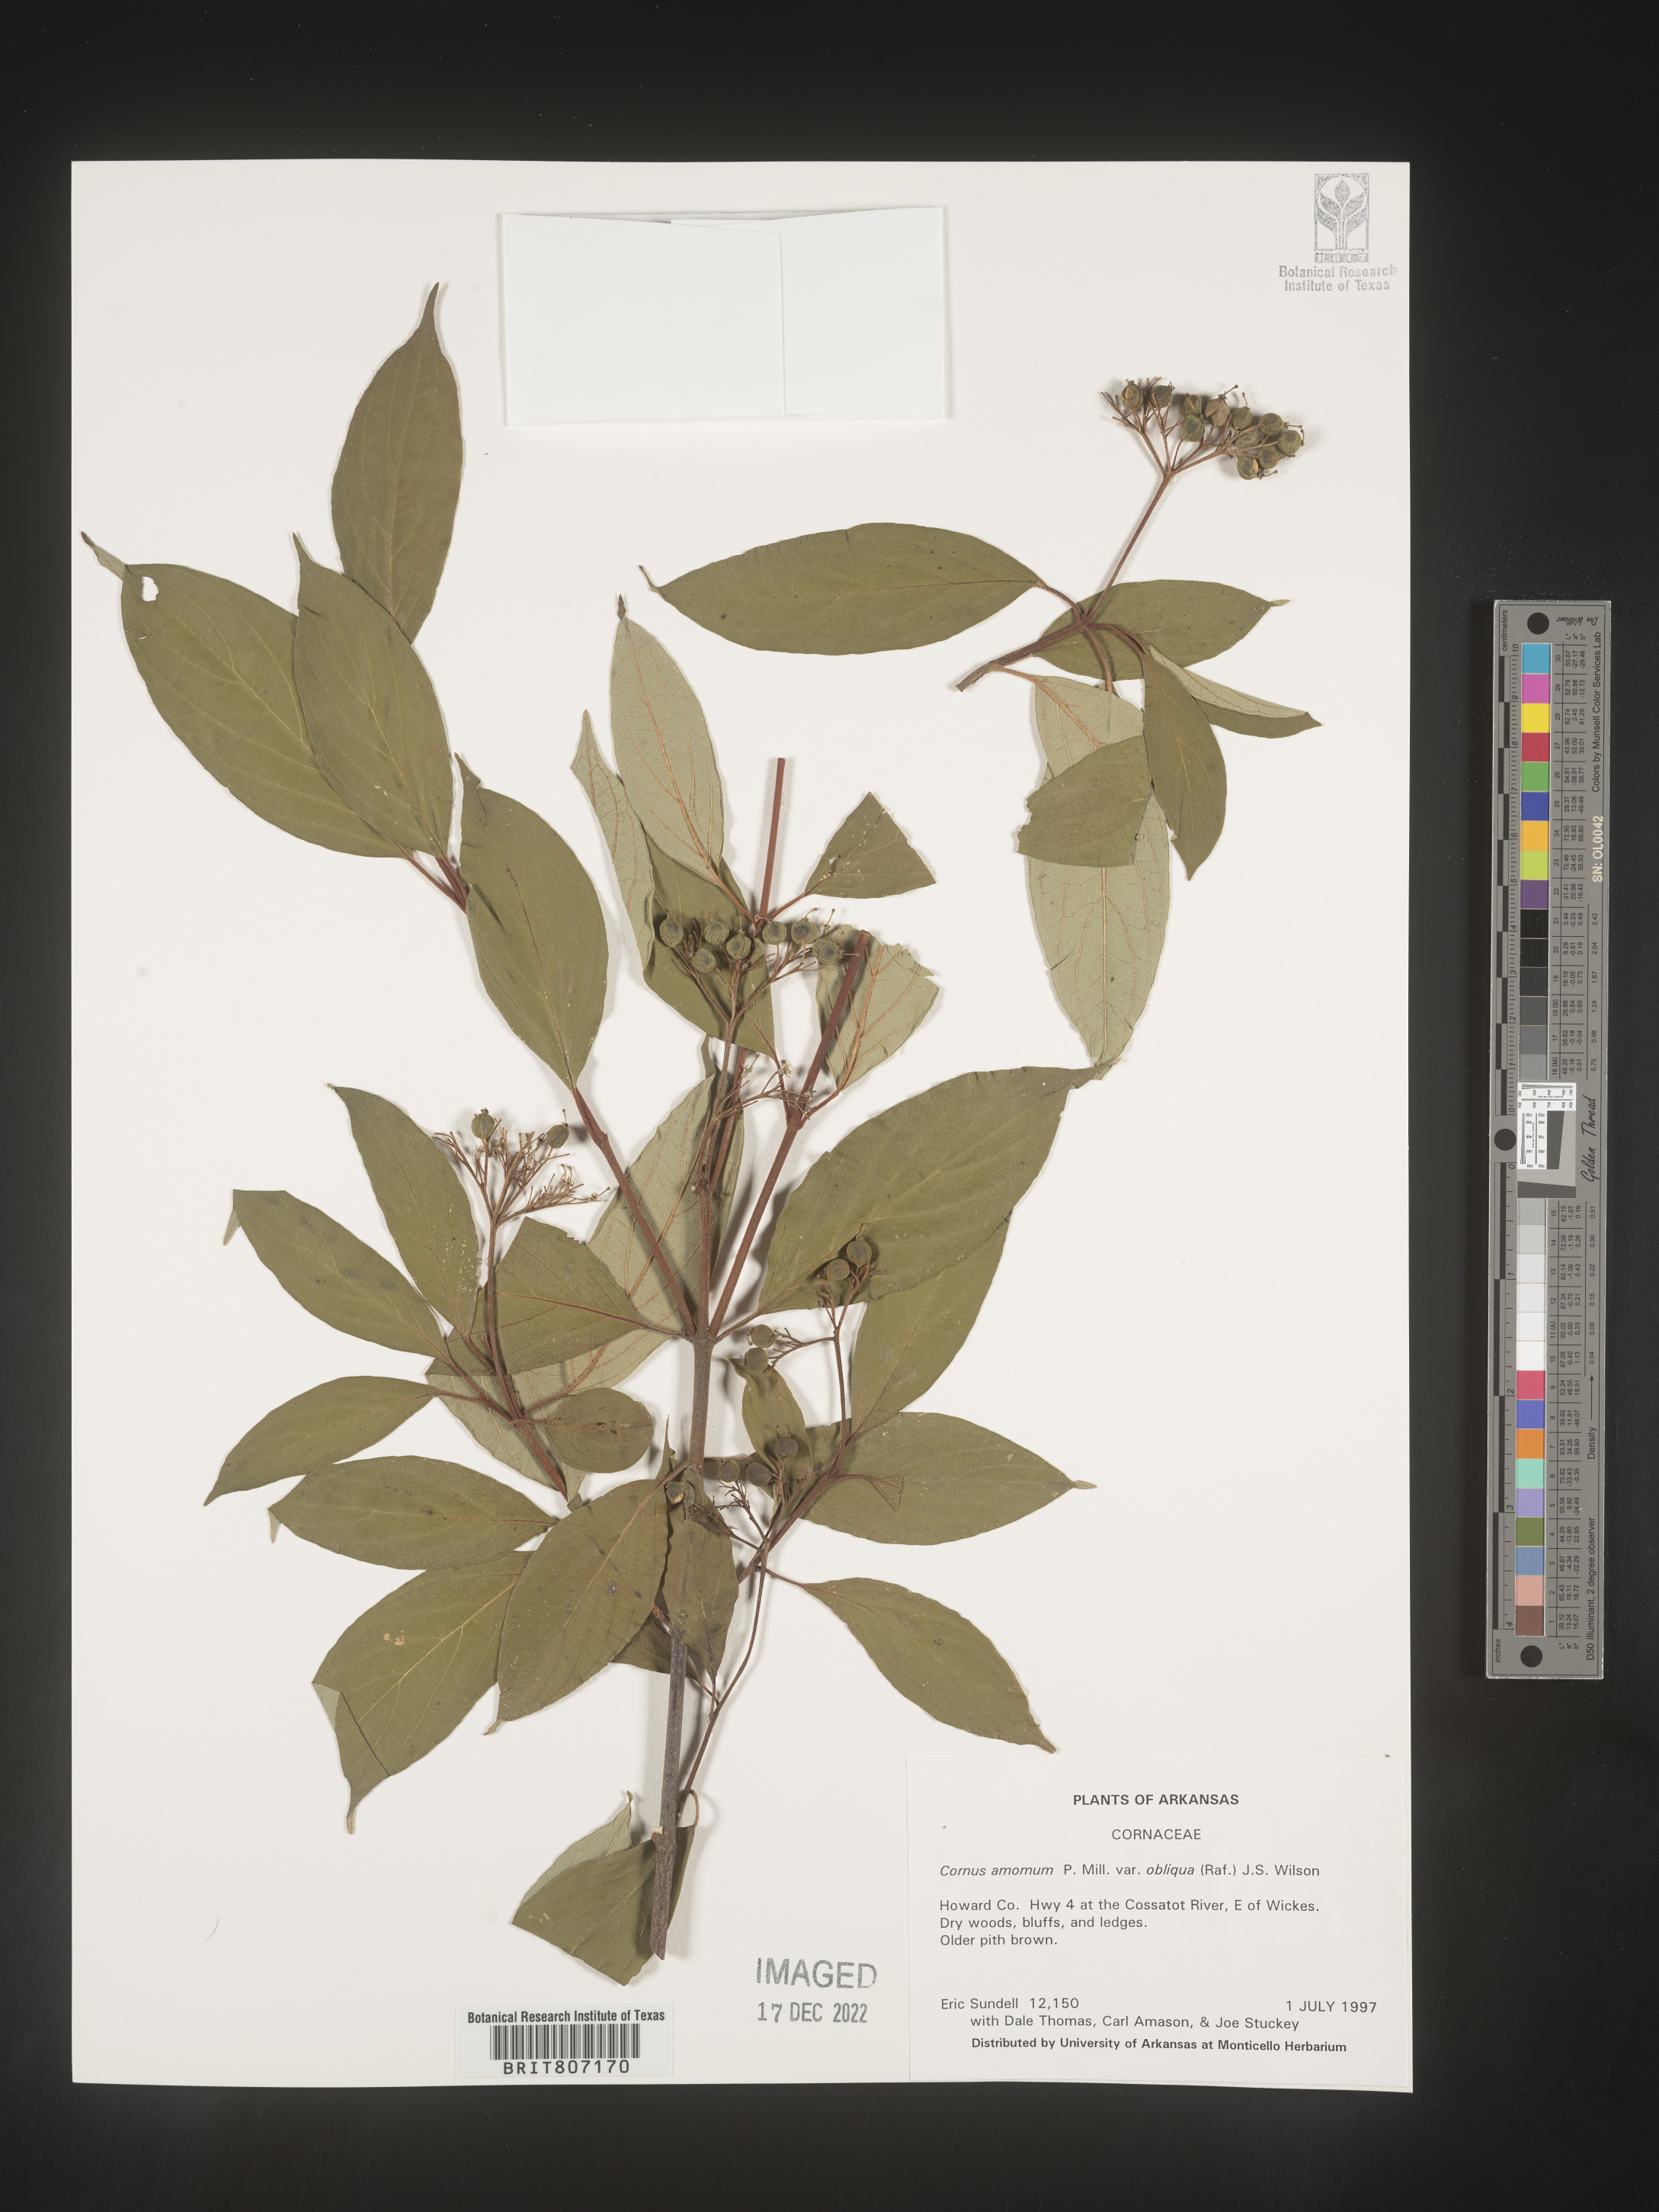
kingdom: Plantae
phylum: Tracheophyta
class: Magnoliopsida
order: Cornales
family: Cornaceae
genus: Cornus
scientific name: Cornus amomum
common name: Silky dogwood
